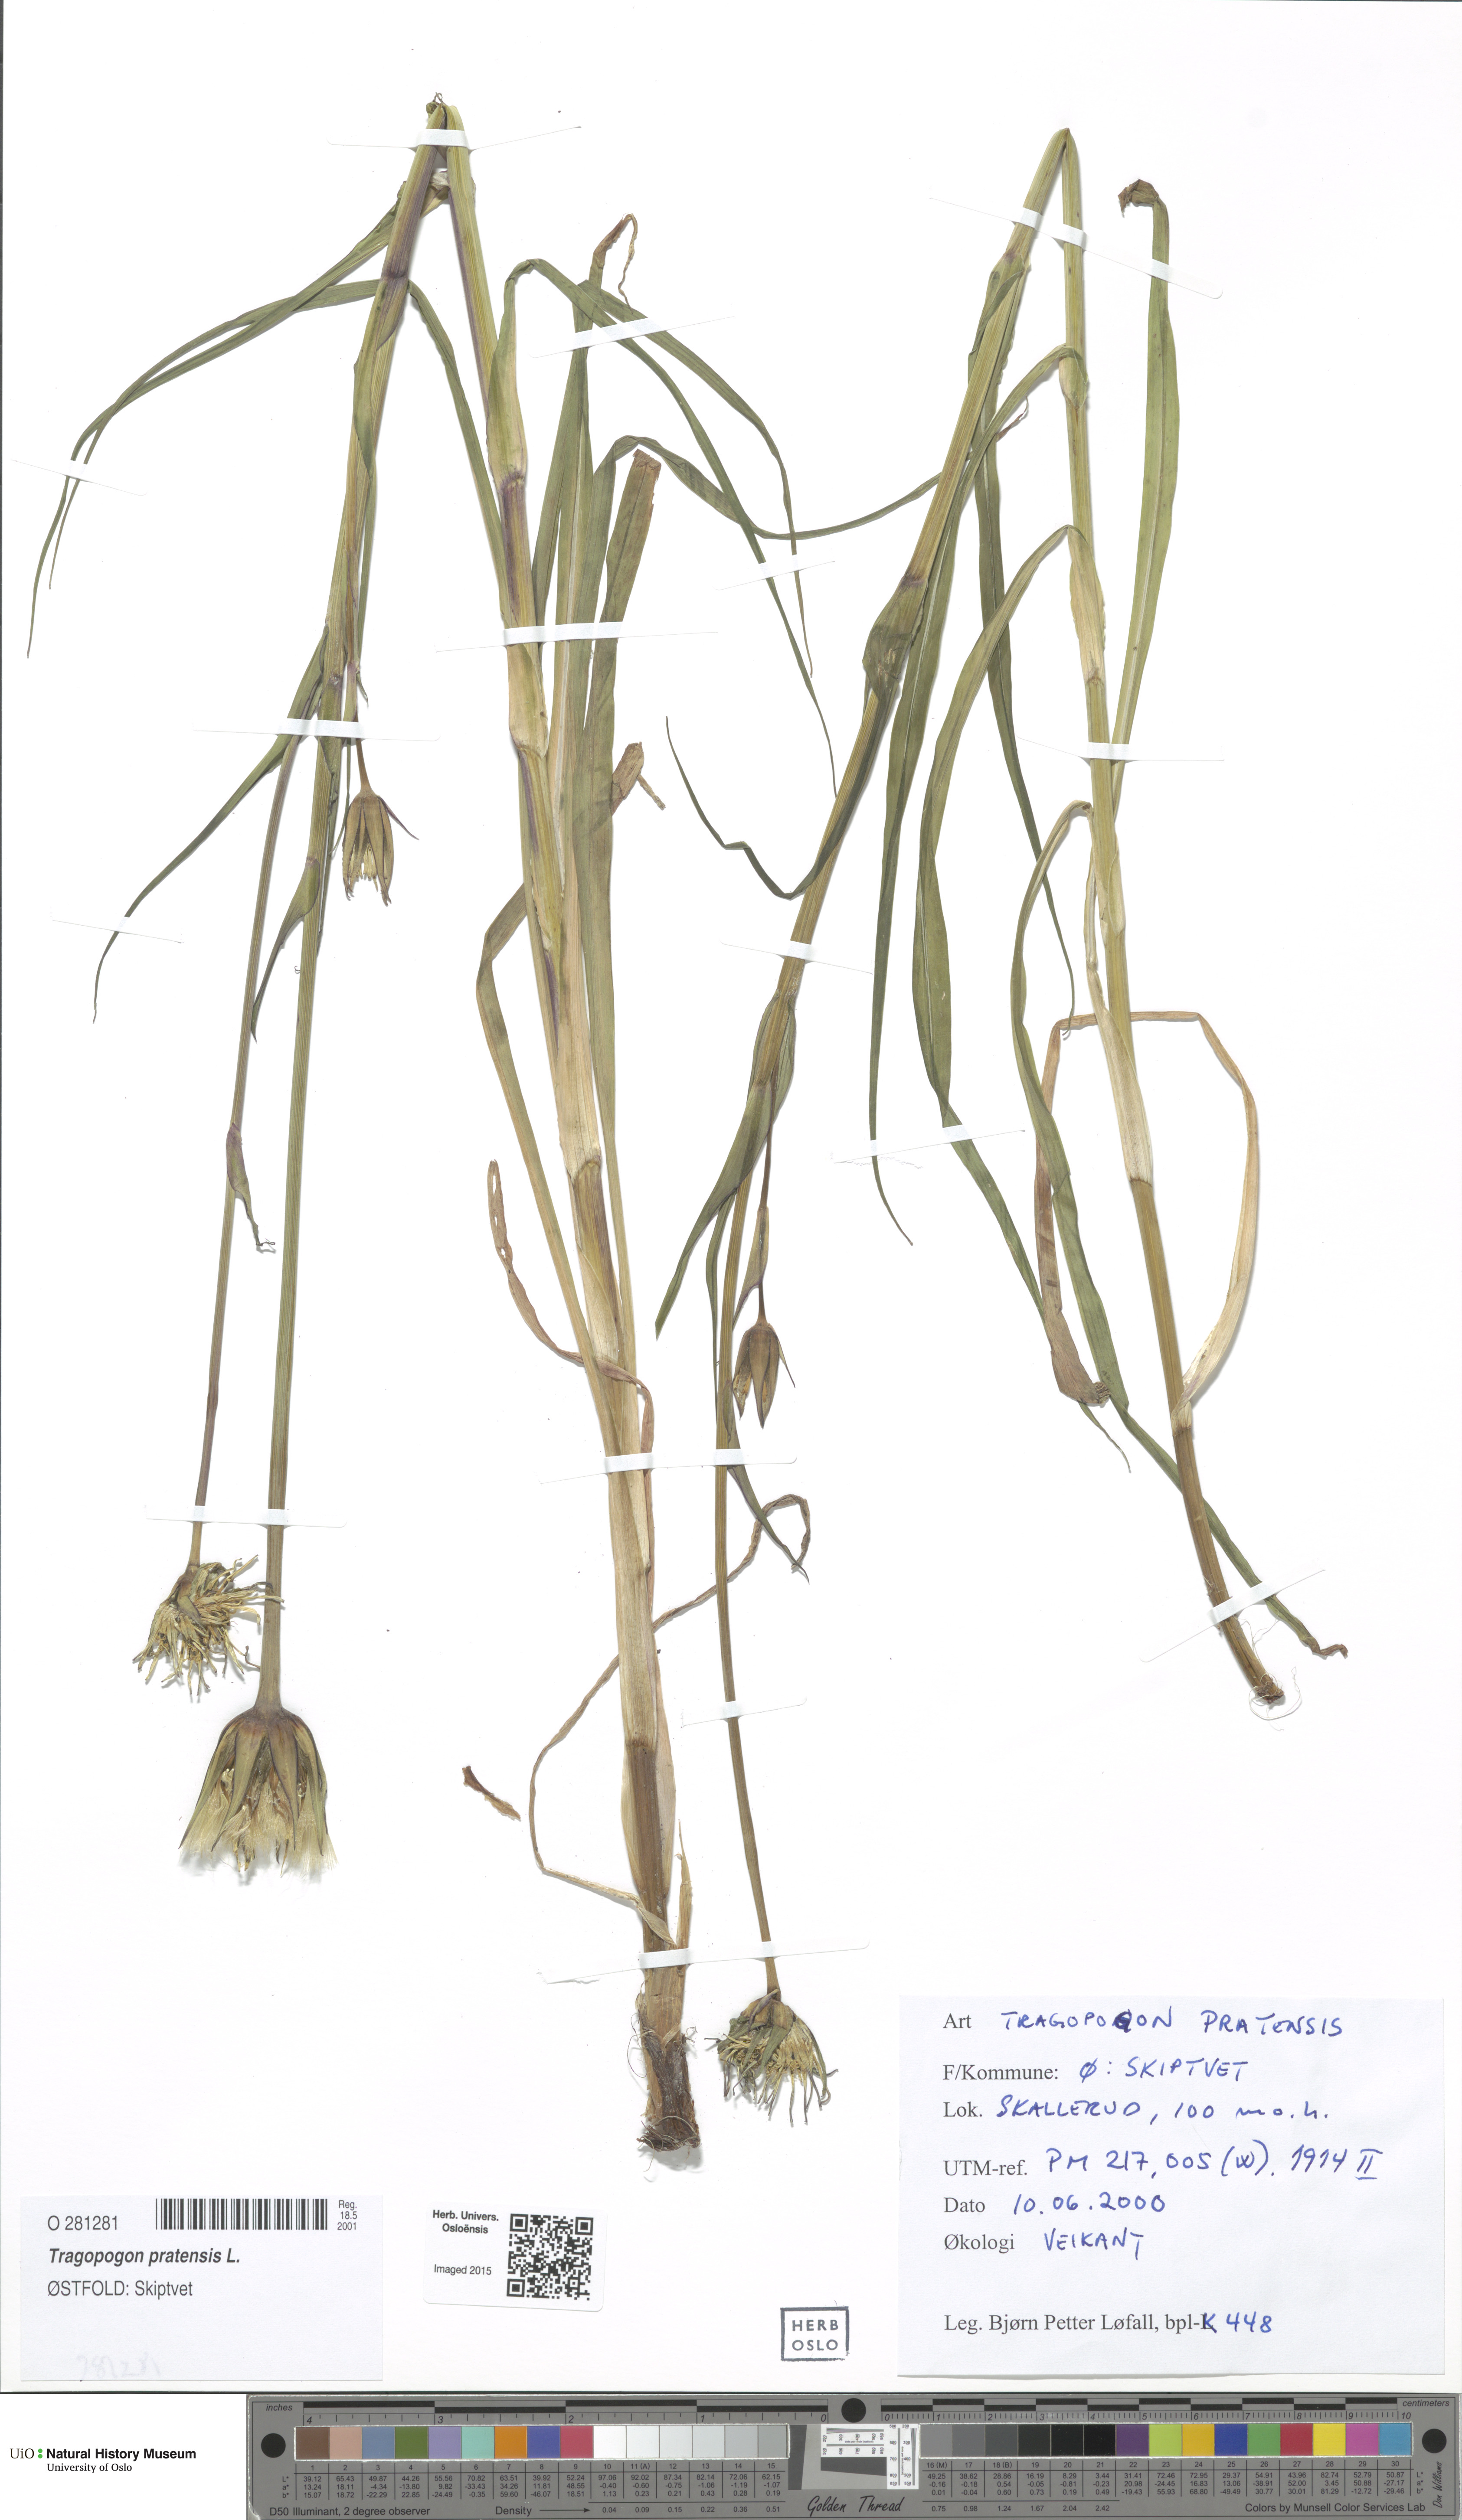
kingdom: Plantae
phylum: Tracheophyta
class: Magnoliopsida
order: Asterales
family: Asteraceae
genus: Tragopogon
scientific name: Tragopogon pratensis
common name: Goat's-beard
